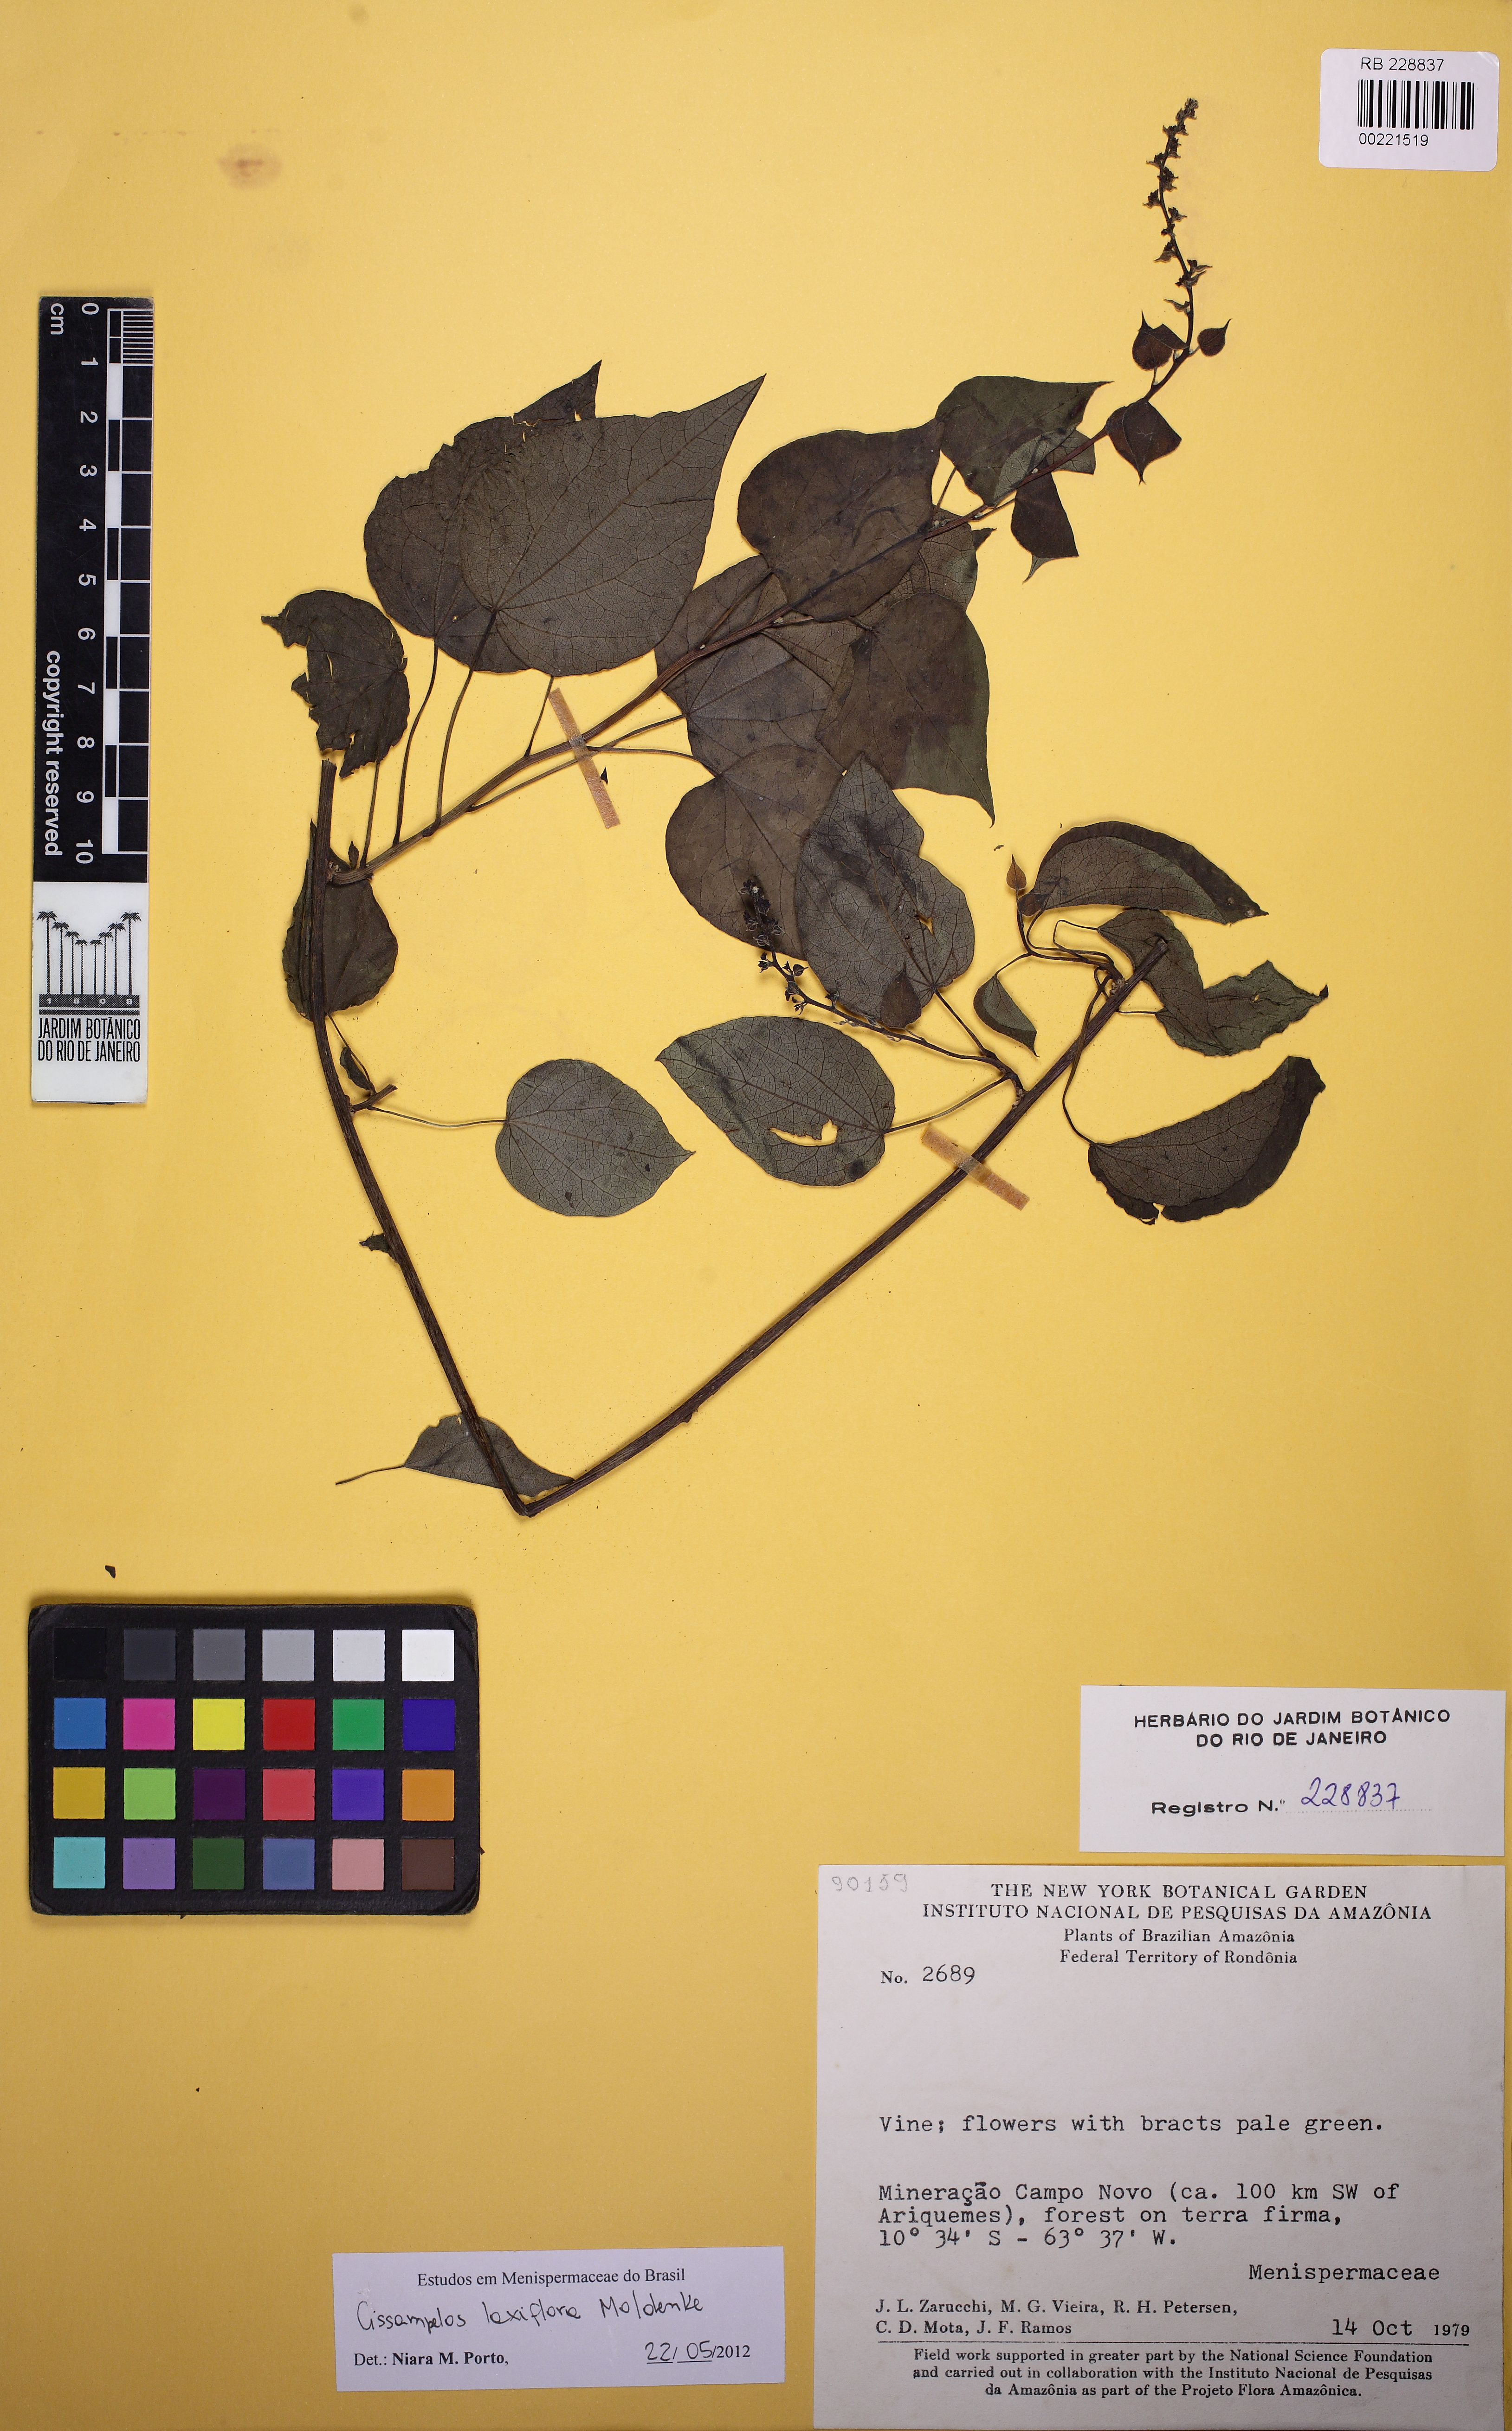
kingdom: Plantae
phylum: Tracheophyta
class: Magnoliopsida
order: Ranunculales
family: Menispermaceae
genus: Cissampelos
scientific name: Cissampelos laxiflora
